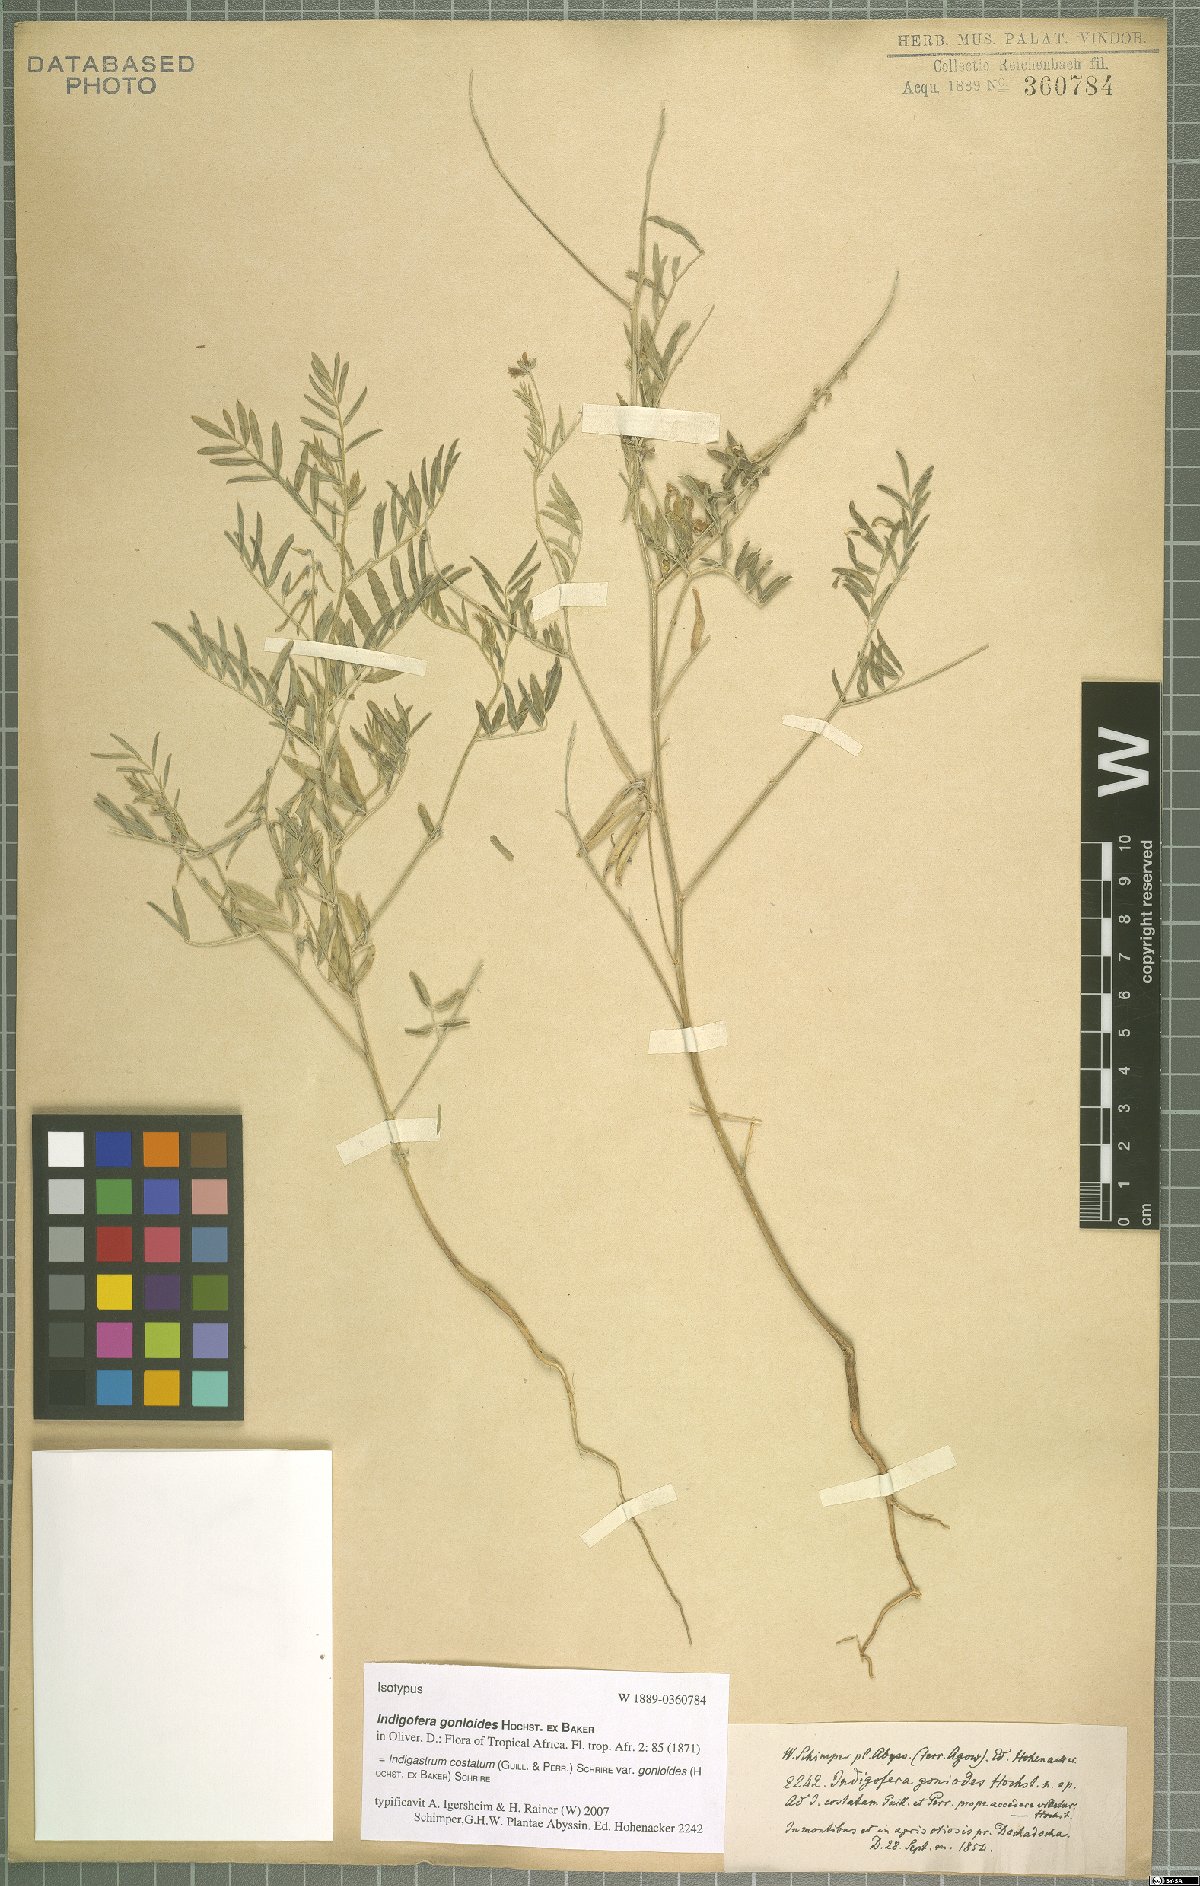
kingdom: Plantae
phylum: Tracheophyta
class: Magnoliopsida
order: Fabales
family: Fabaceae
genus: Indigastrum
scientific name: Indigastrum costatum
